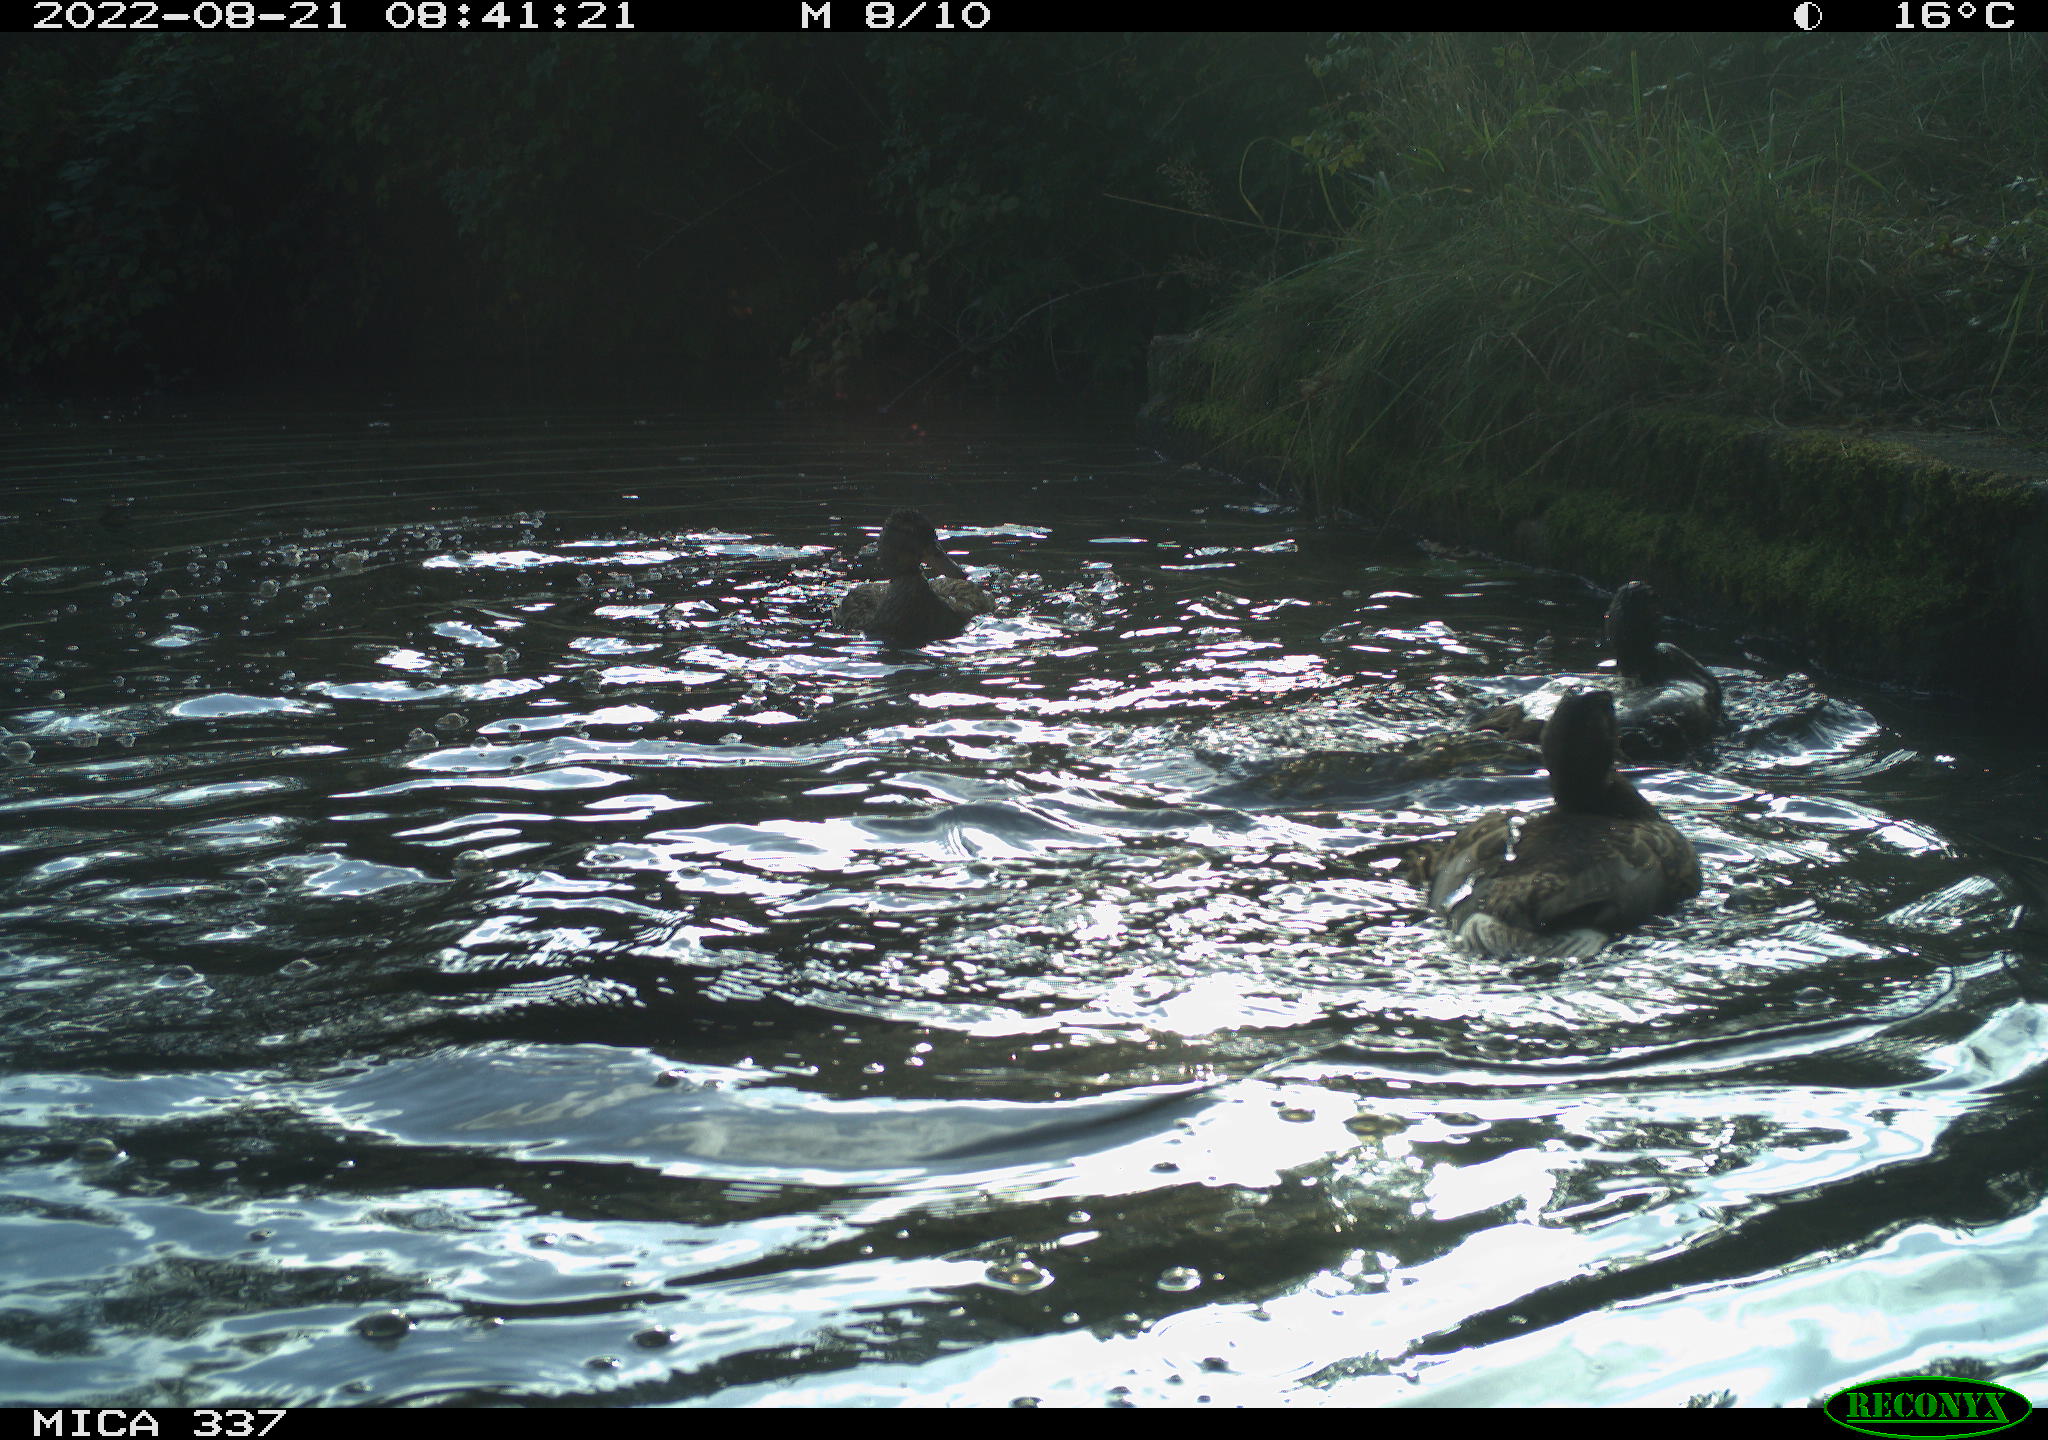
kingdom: Animalia
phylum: Chordata
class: Aves
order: Anseriformes
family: Anatidae
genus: Anas
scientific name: Anas platyrhynchos
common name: Mallard
